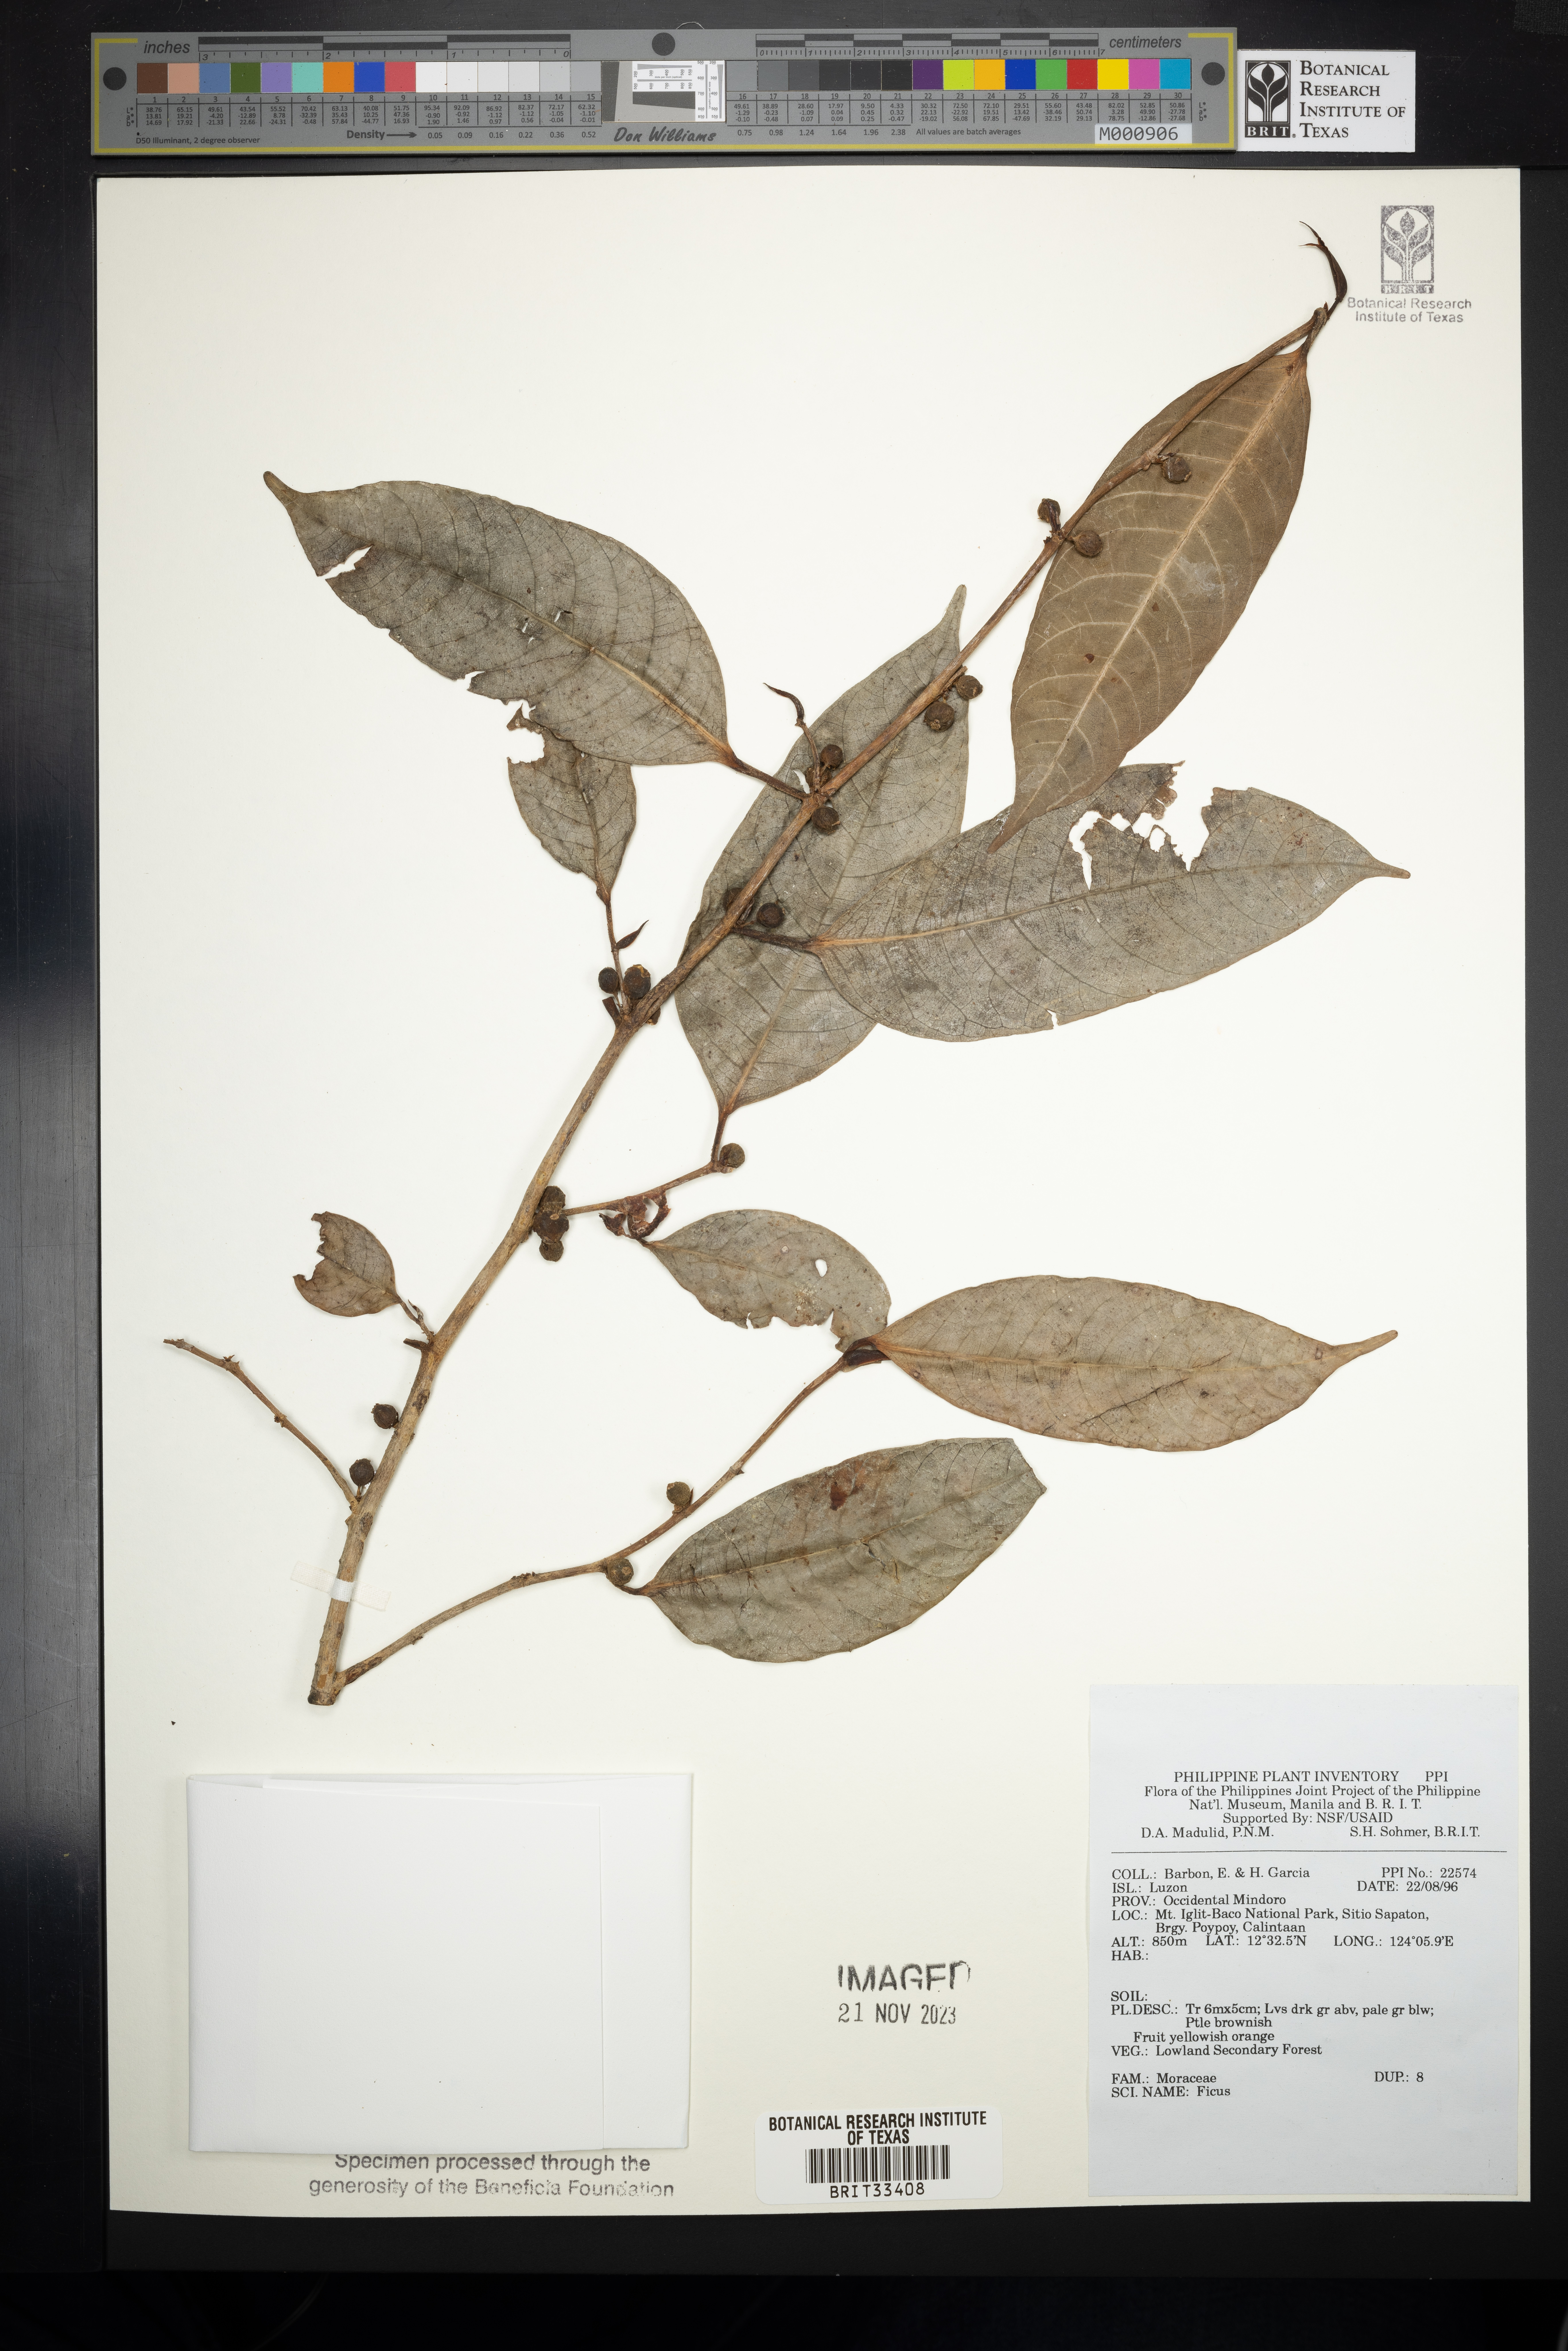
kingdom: Plantae
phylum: Tracheophyta
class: Magnoliopsida
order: Rosales
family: Moraceae
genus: Ficus
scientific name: Ficus
